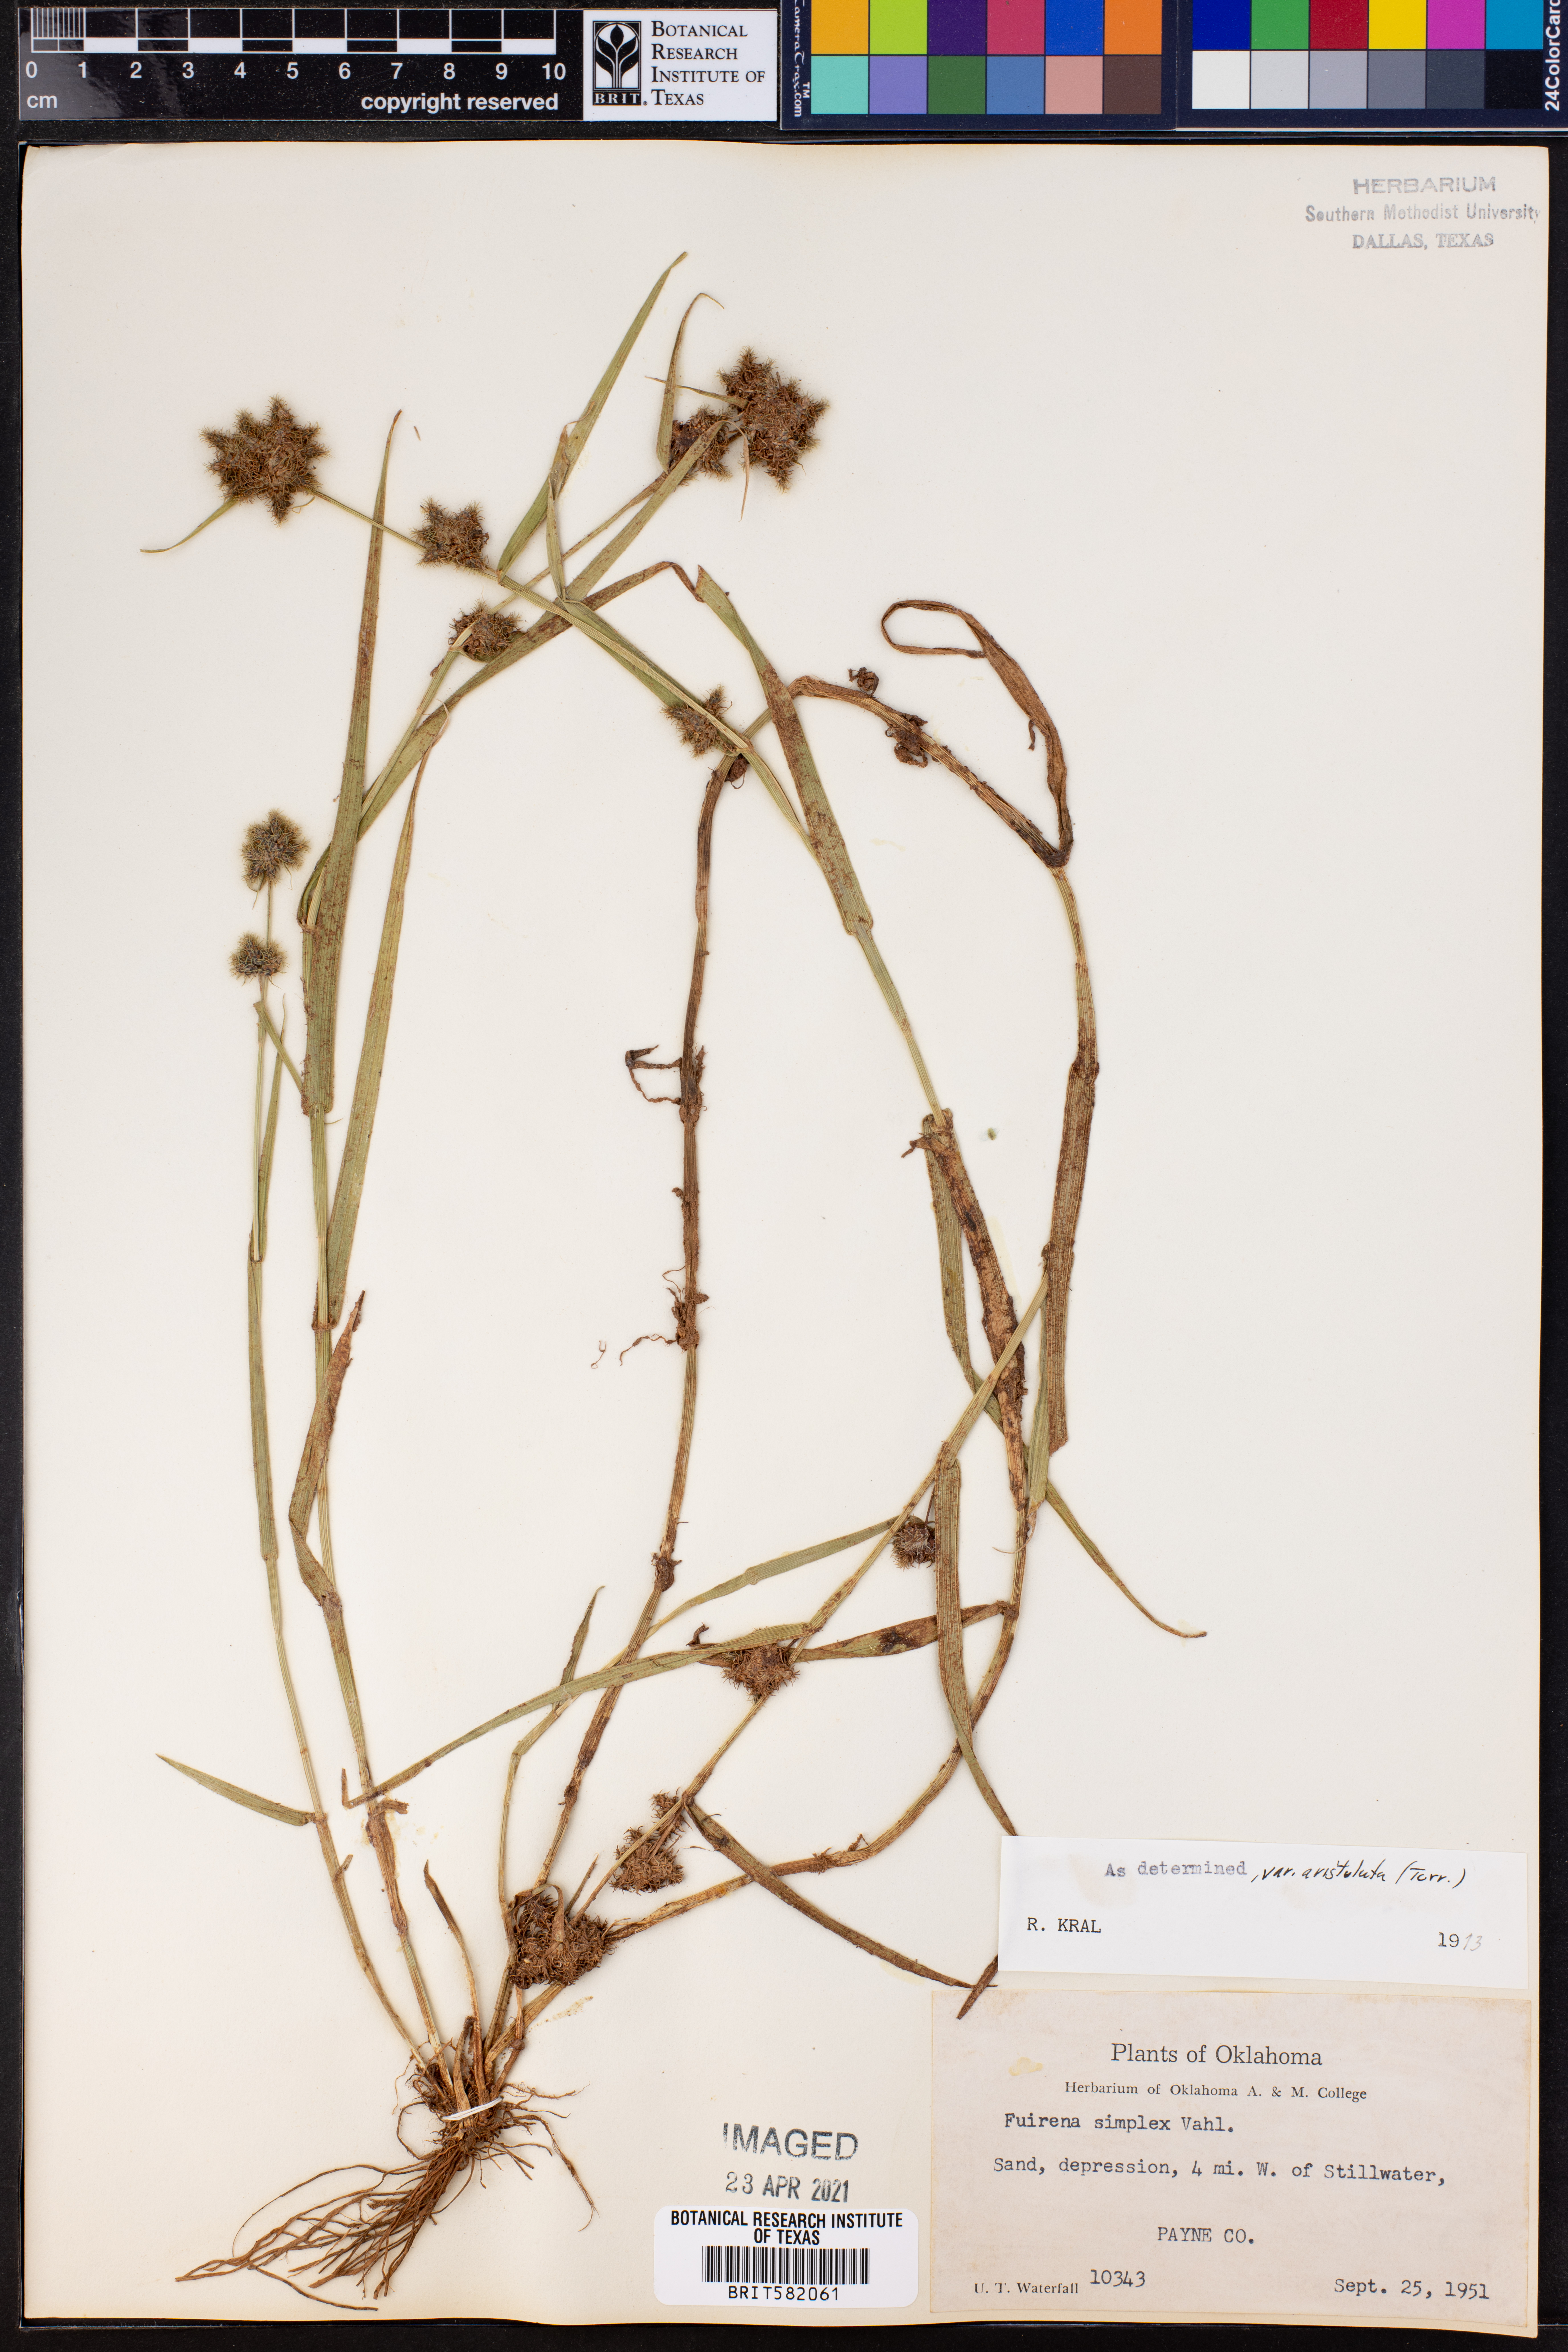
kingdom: Plantae
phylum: Tracheophyta
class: Liliopsida
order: Poales
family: Cyperaceae
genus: Fuirena
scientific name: Fuirena simplex
